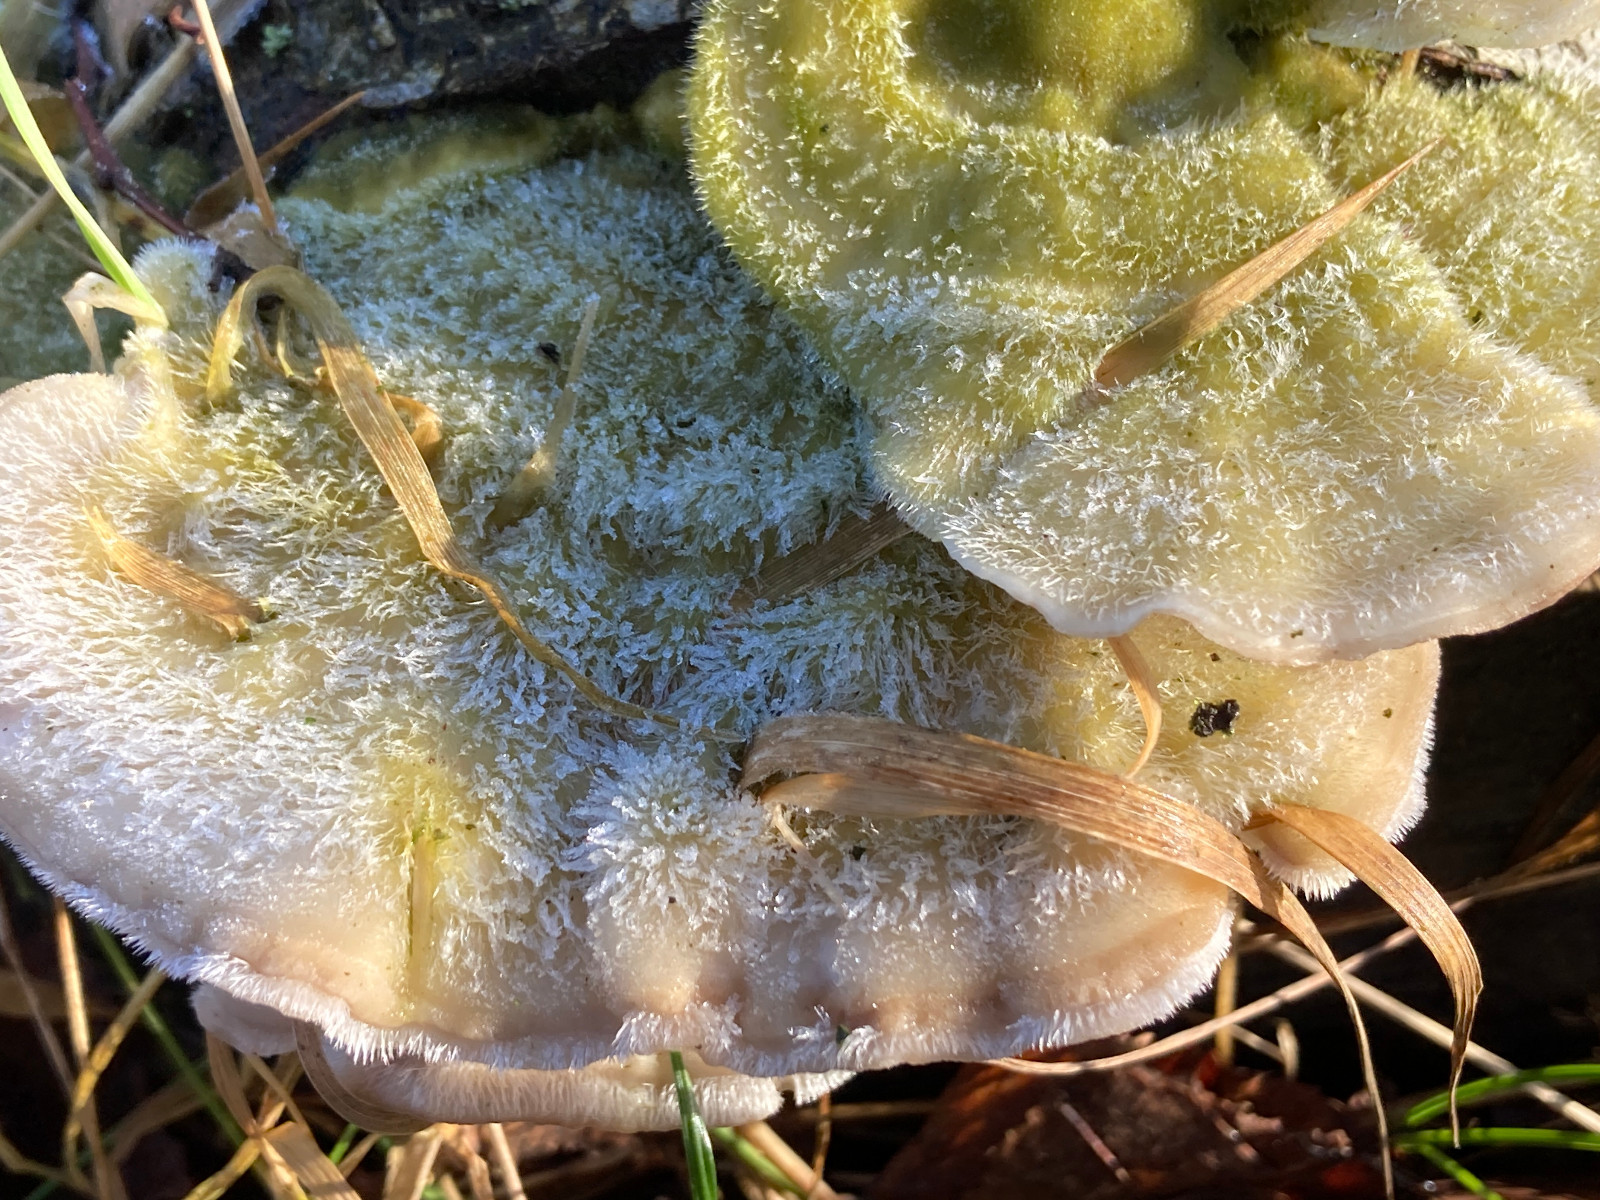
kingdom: Fungi
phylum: Basidiomycota
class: Agaricomycetes
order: Polyporales
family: Polyporaceae
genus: Trametes
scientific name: Trametes hirsuta
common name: håret læderporesvamp
